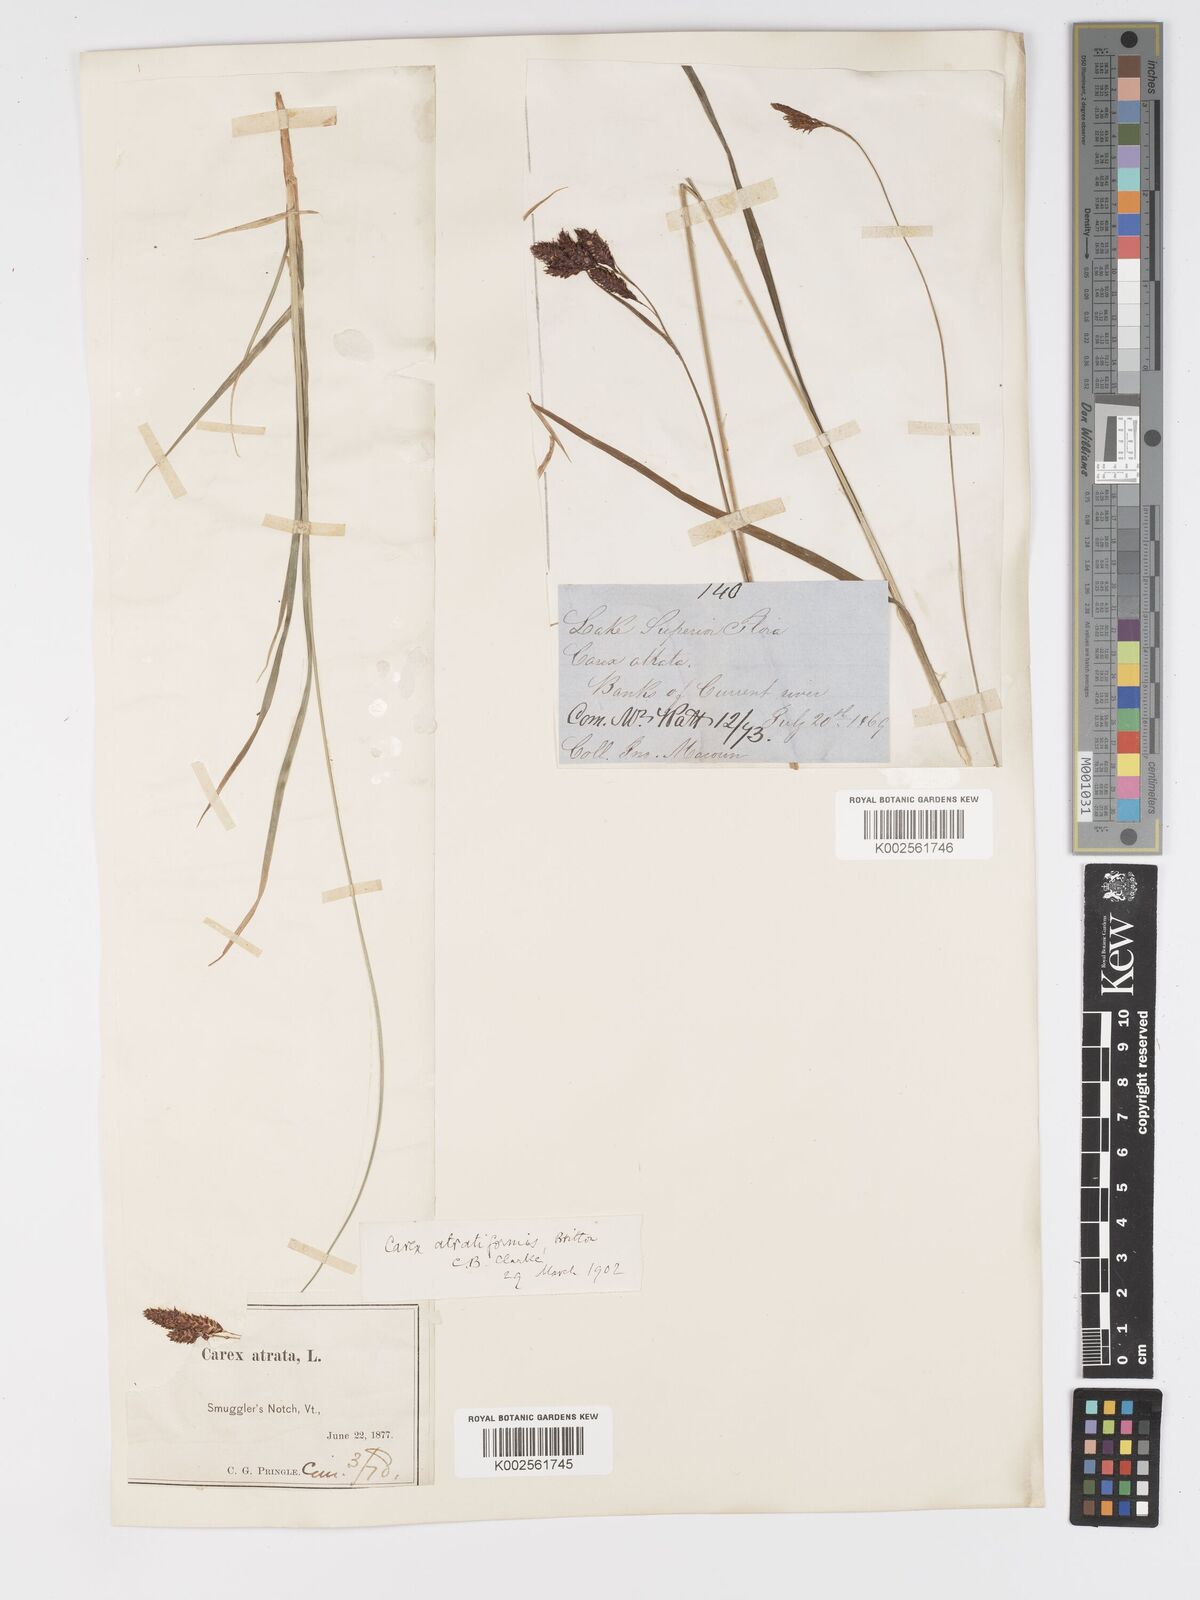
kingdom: Plantae
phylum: Tracheophyta
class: Liliopsida
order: Poales
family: Cyperaceae
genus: Carex
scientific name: Carex atratiformis
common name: Black sedge
